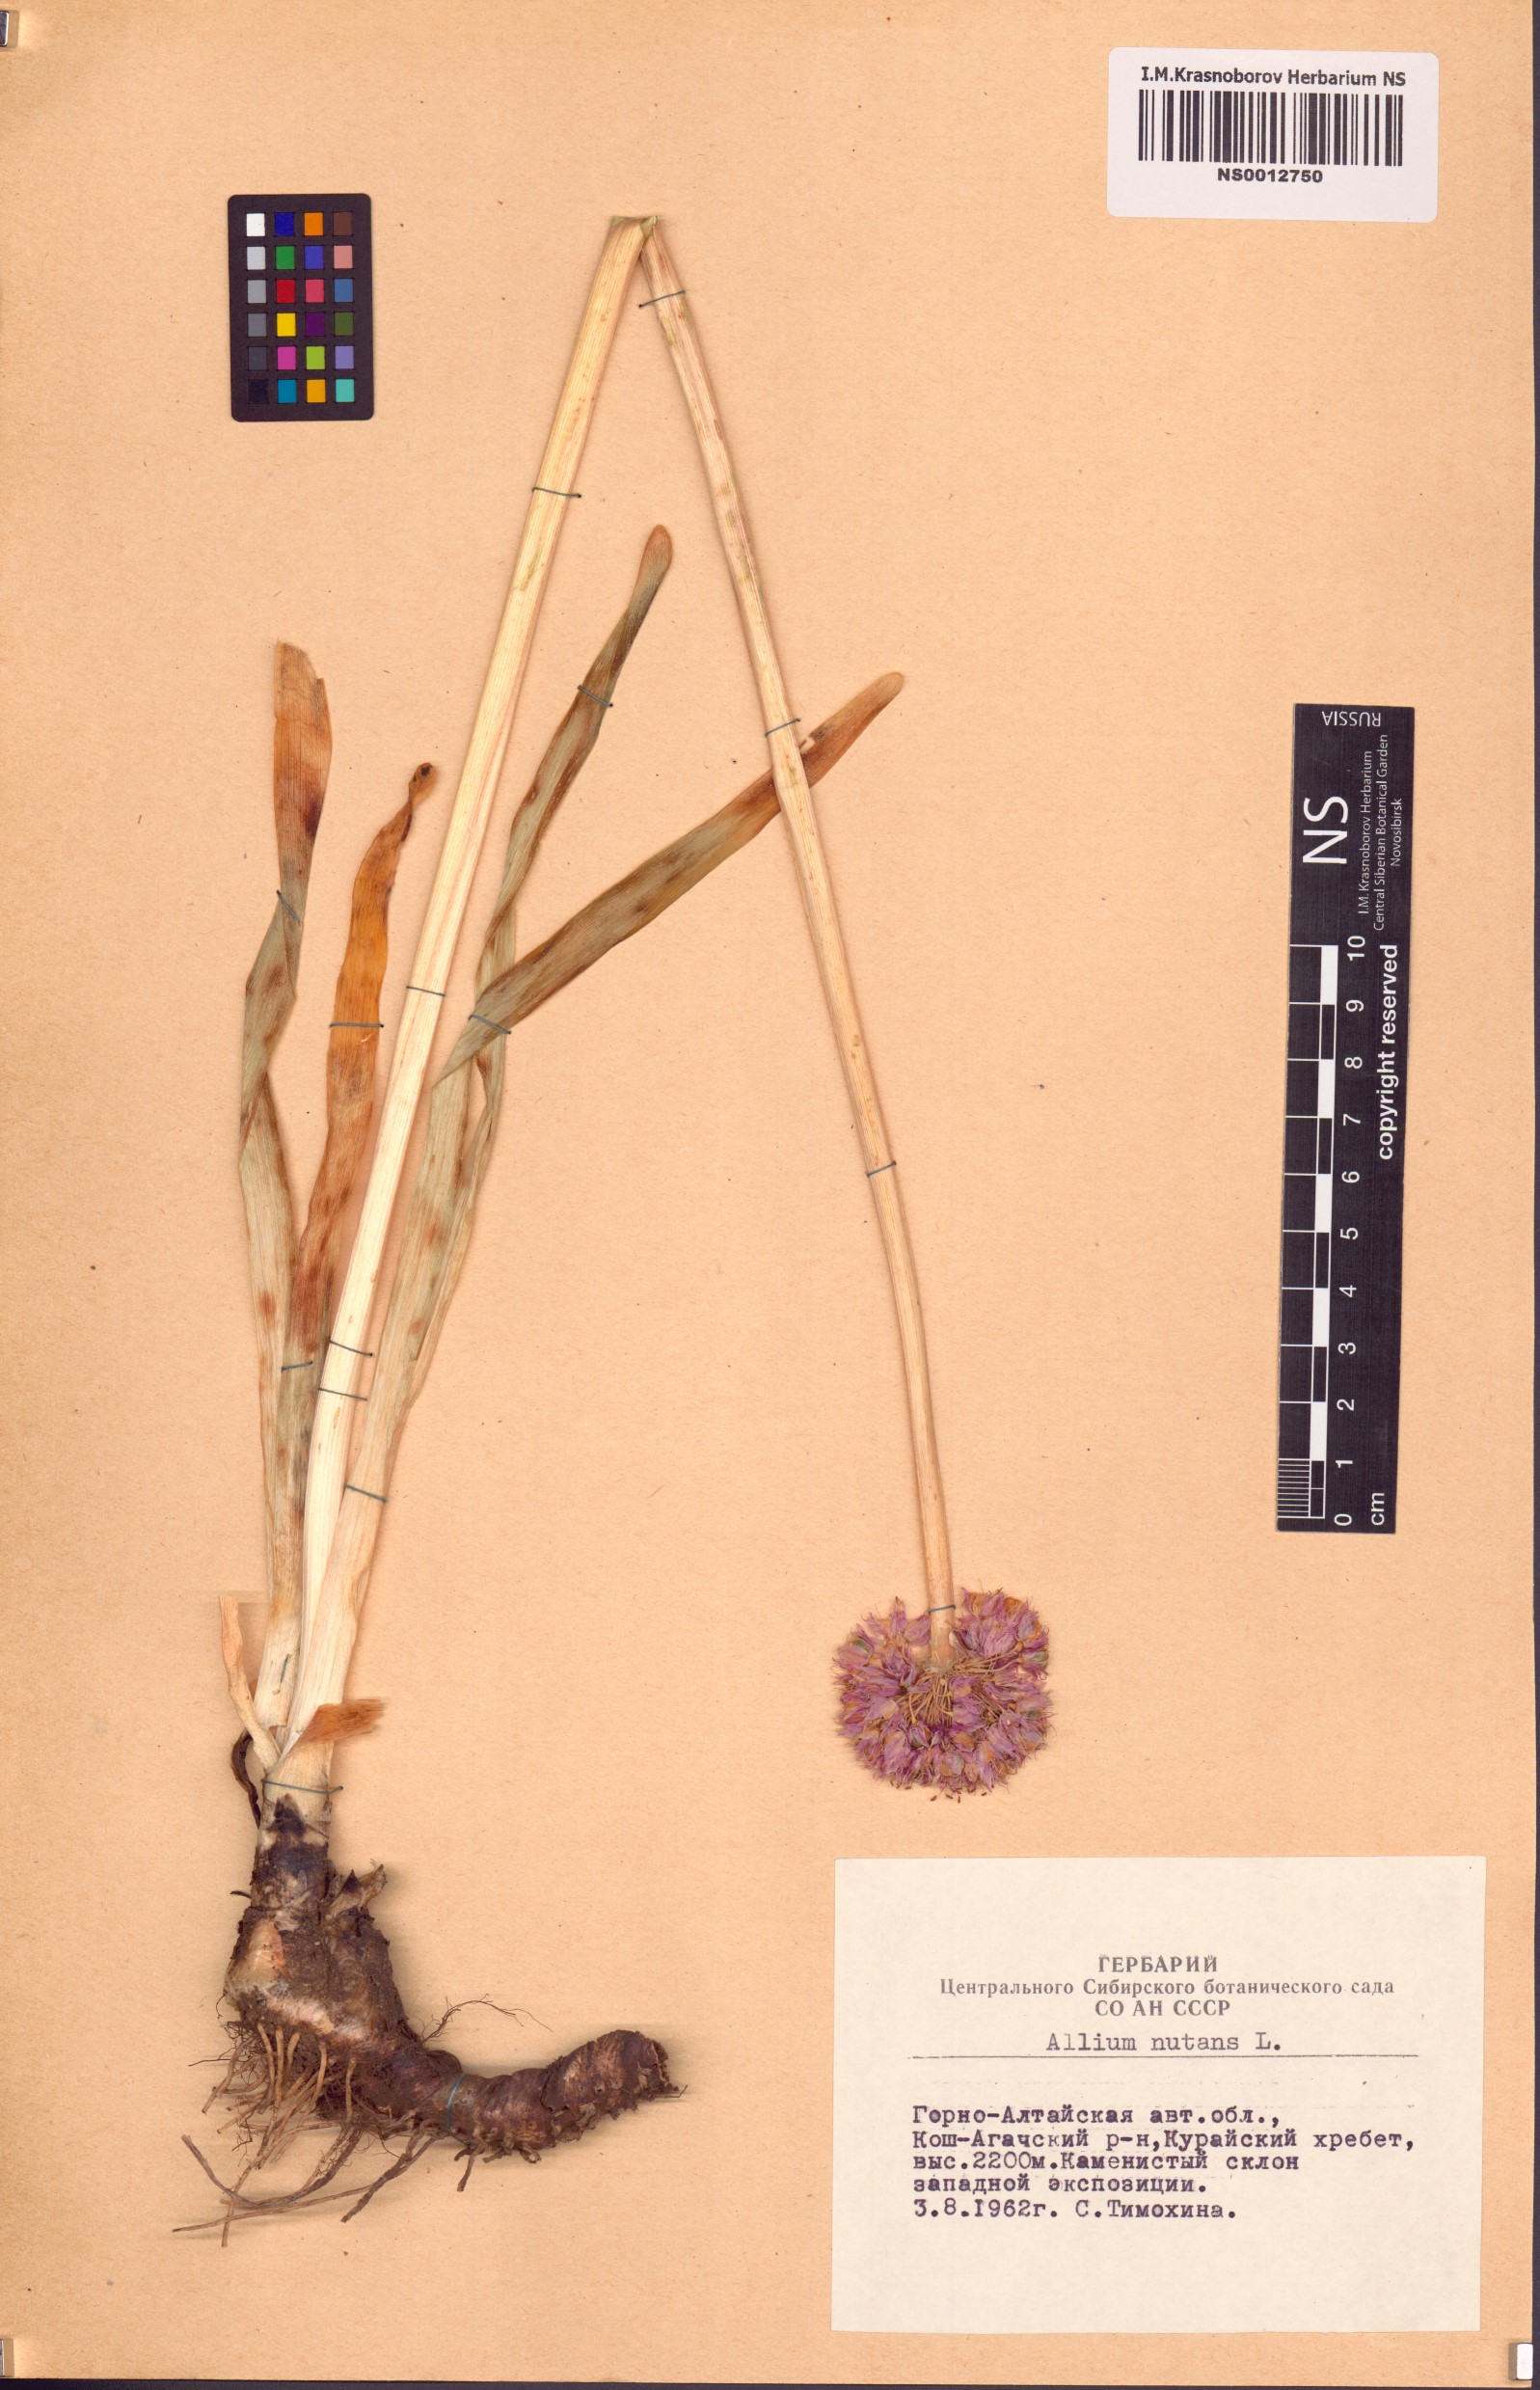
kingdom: Plantae
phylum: Tracheophyta
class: Liliopsida
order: Asparagales
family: Amaryllidaceae
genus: Allium
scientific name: Allium nutans
